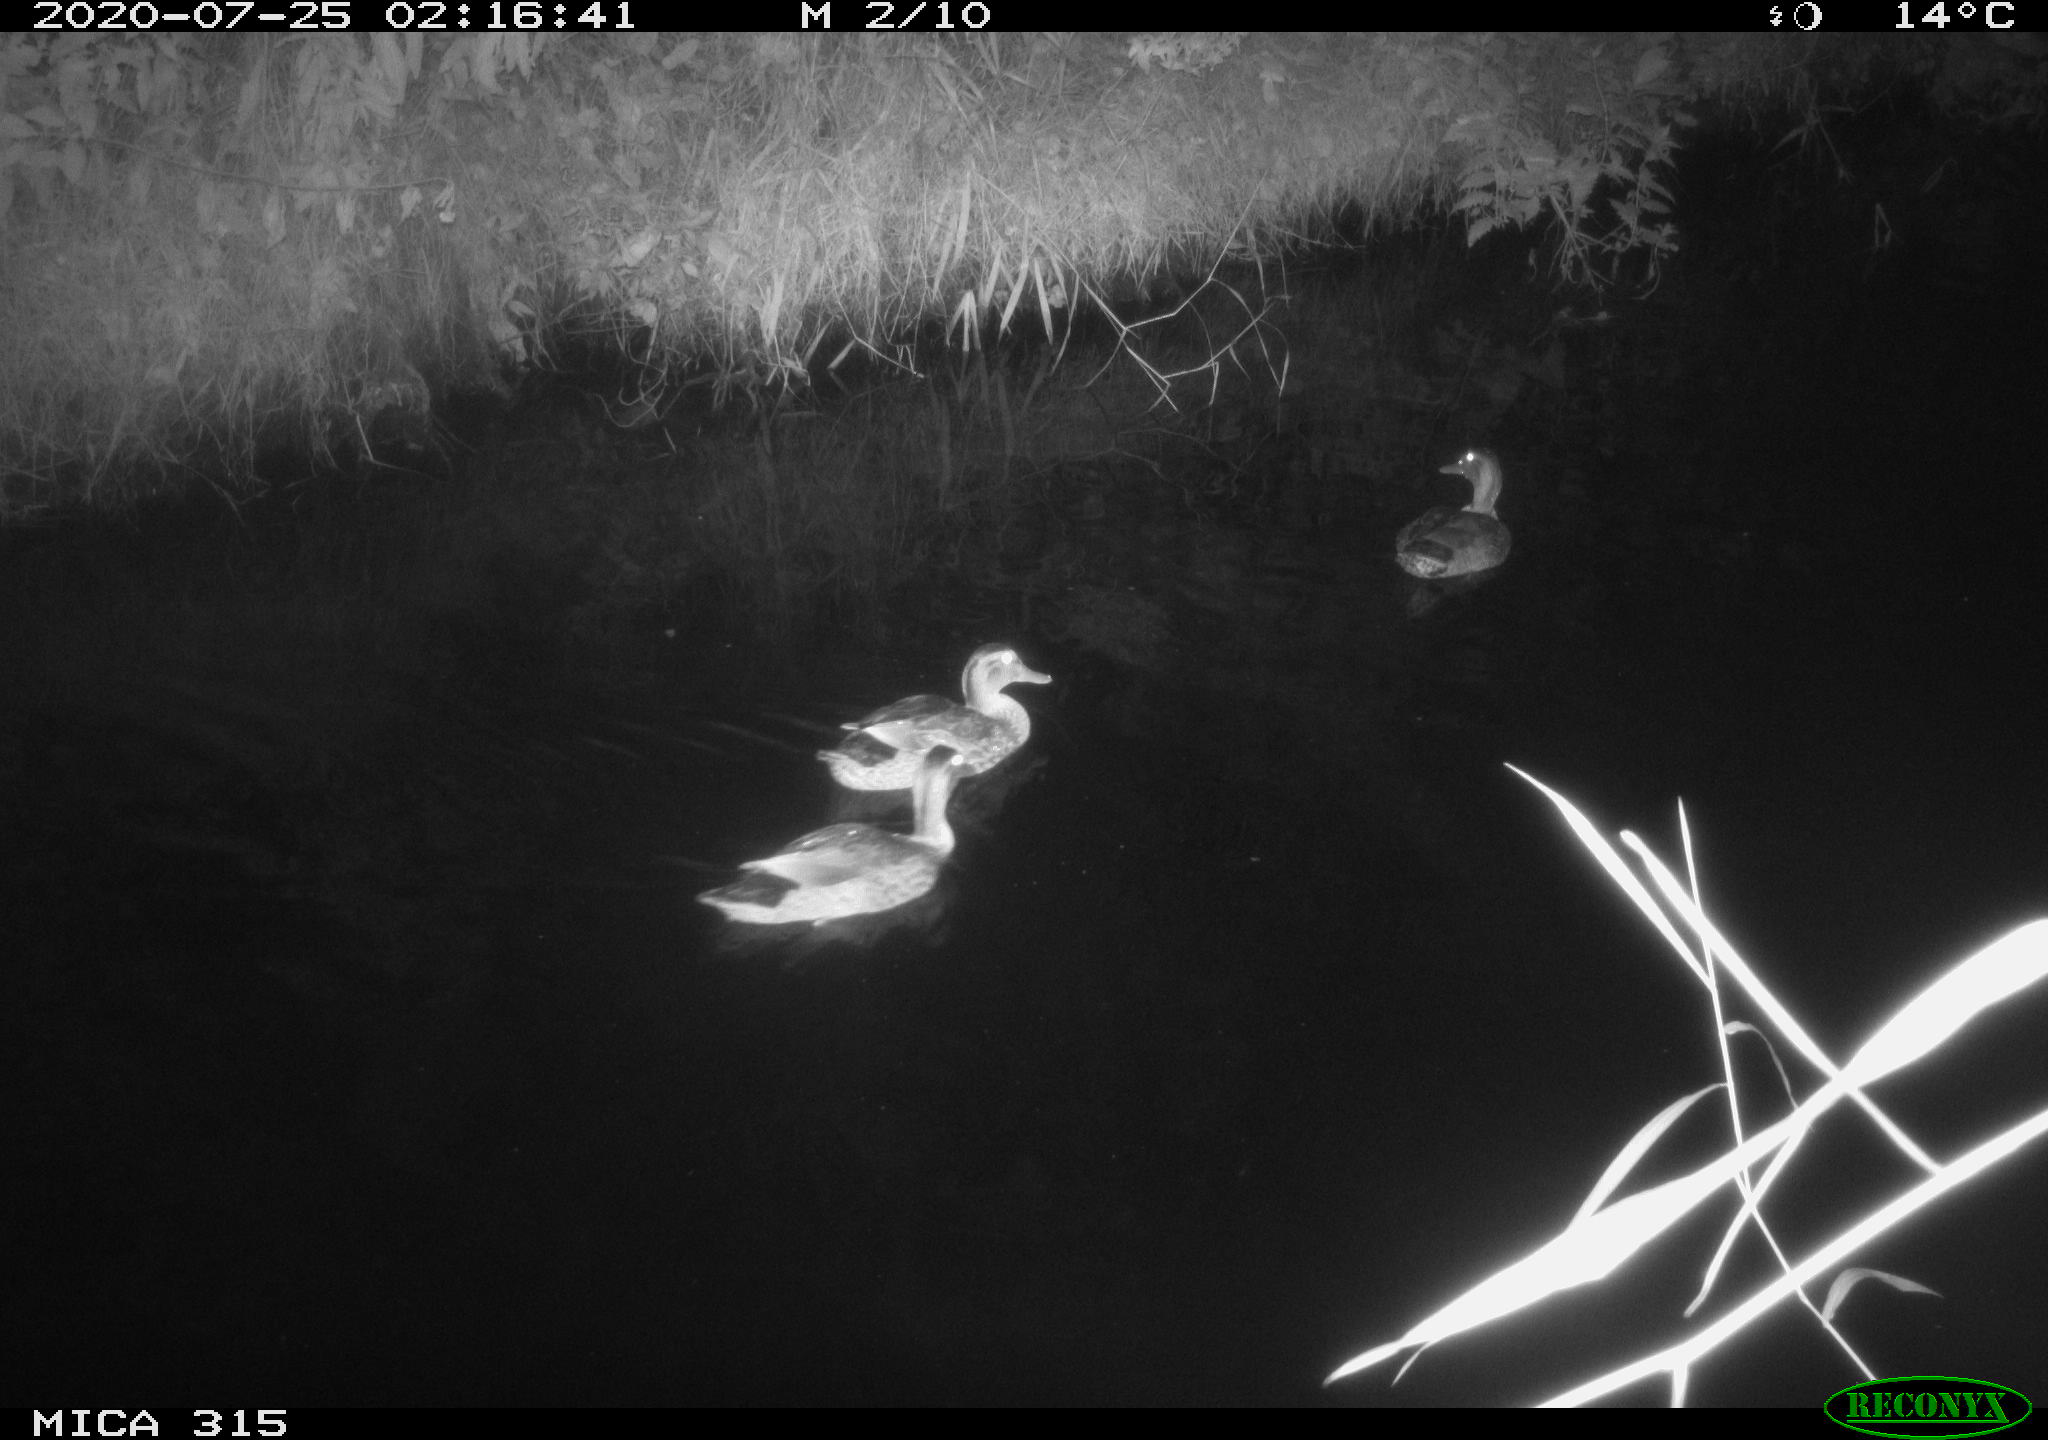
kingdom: Animalia
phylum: Chordata
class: Aves
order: Anseriformes
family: Anatidae
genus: Anas
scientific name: Anas platyrhynchos
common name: Mallard
